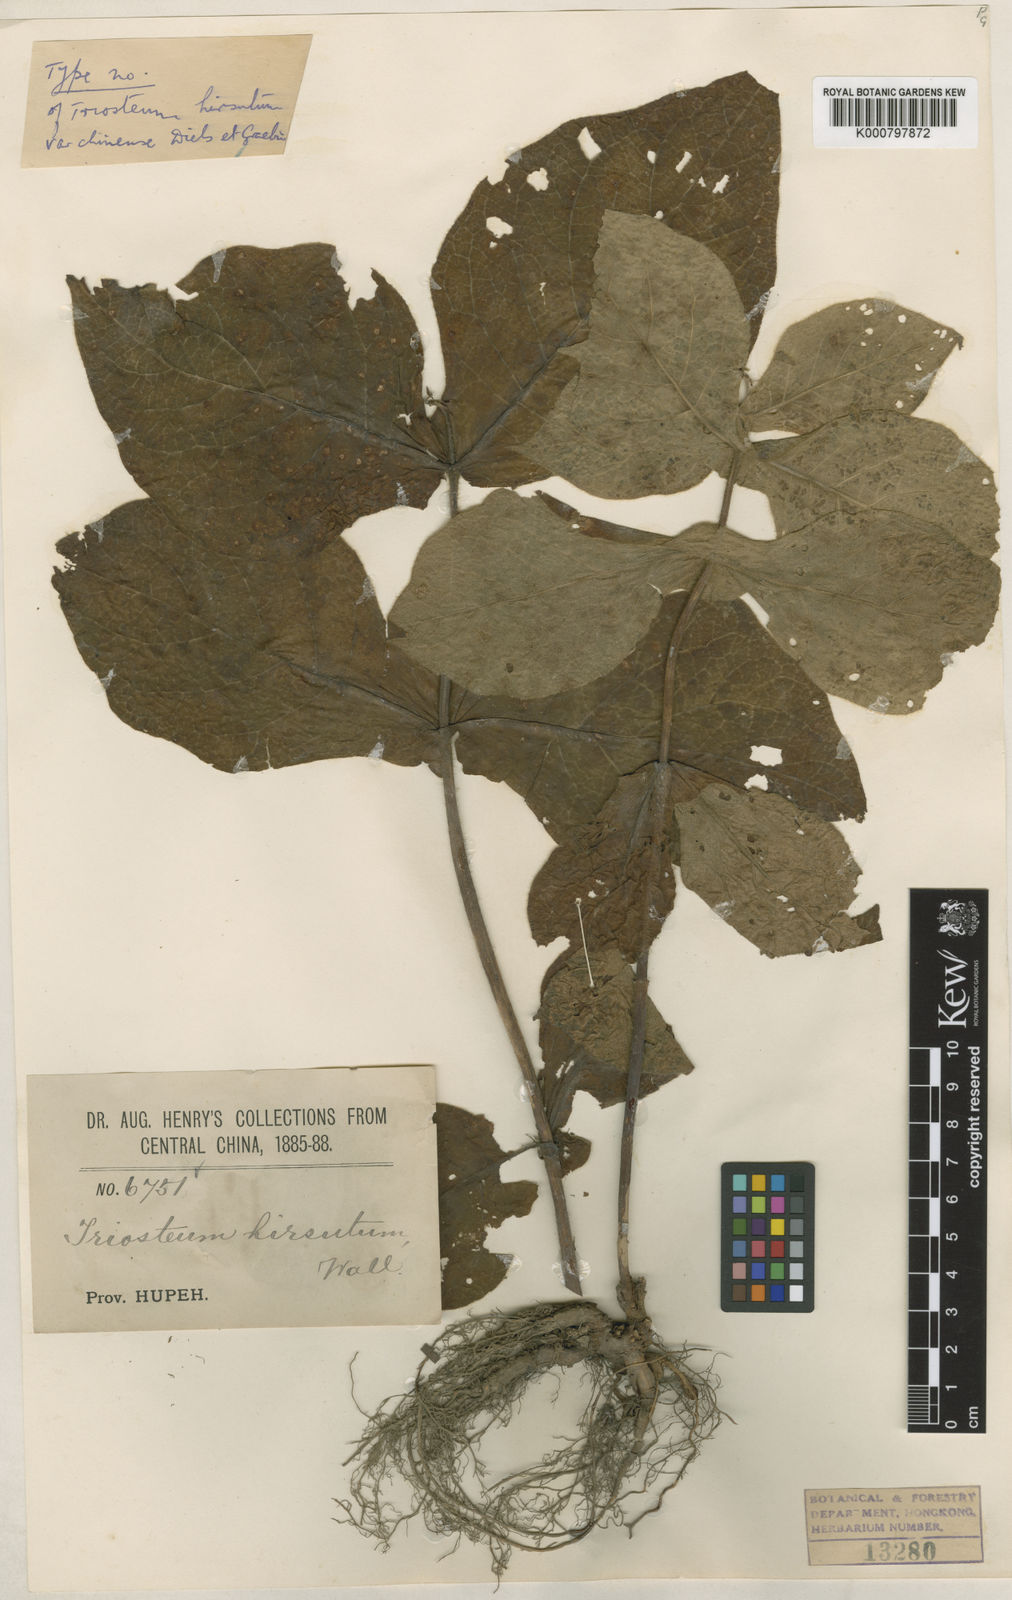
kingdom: Plantae
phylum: Tracheophyta
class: Magnoliopsida
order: Dipsacales
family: Caprifoliaceae
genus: Triosteum
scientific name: Triosteum himalayanum
